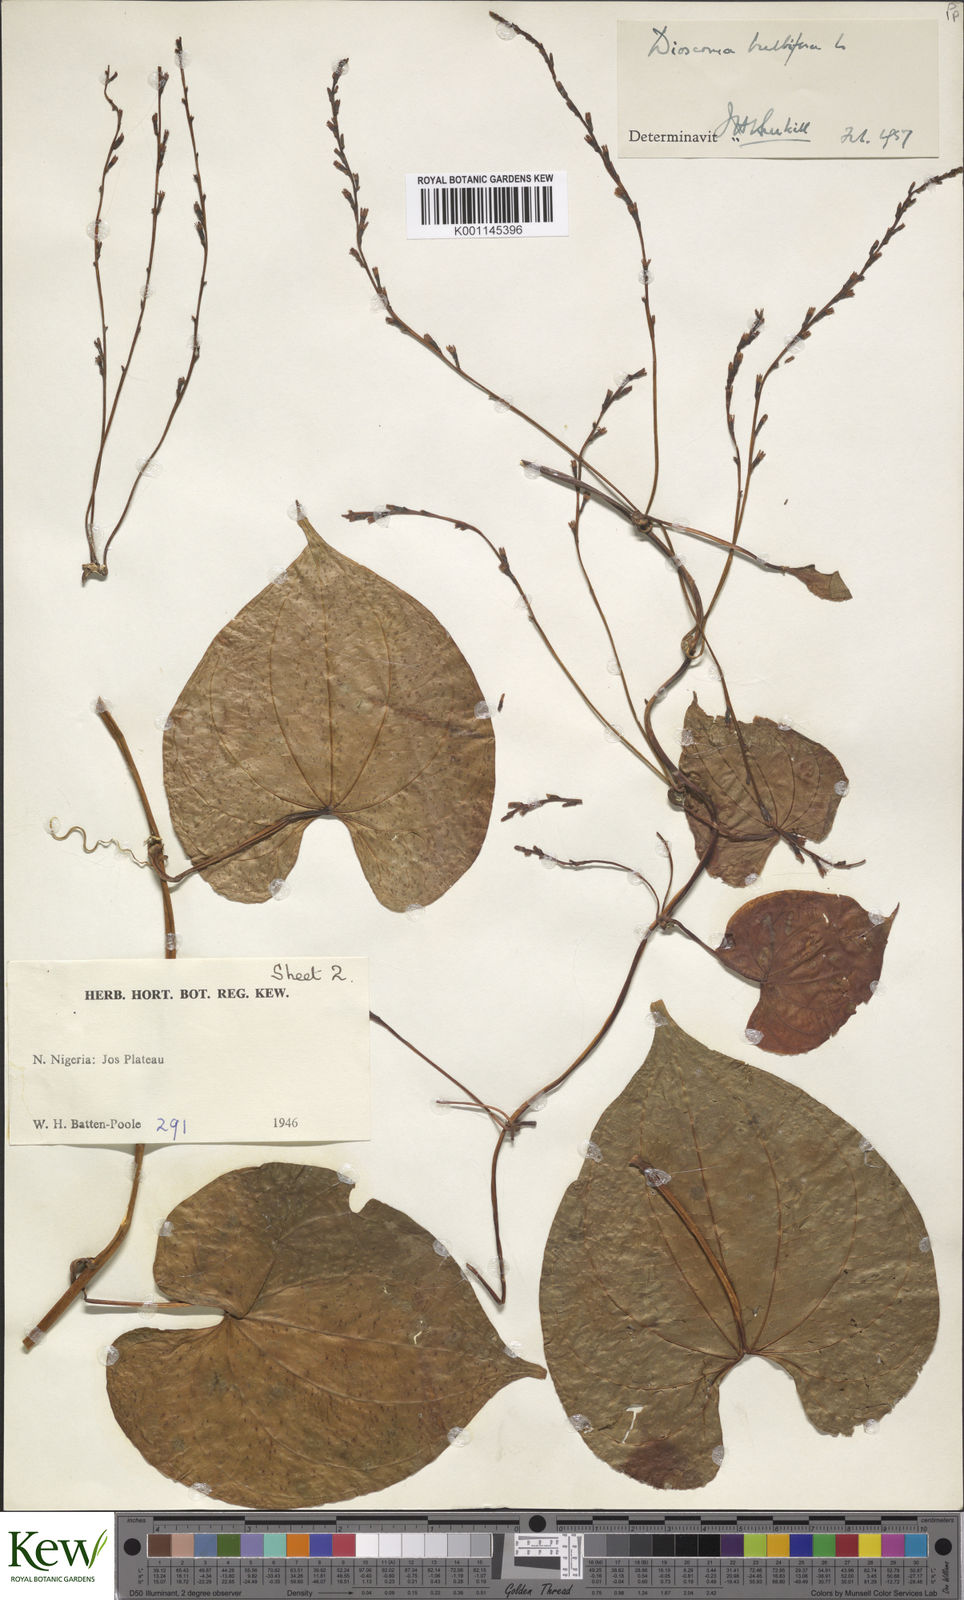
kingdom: Plantae
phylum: Tracheophyta
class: Liliopsida
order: Dioscoreales
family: Dioscoreaceae
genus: Dioscorea
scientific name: Dioscorea bulbifera
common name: Air yam
